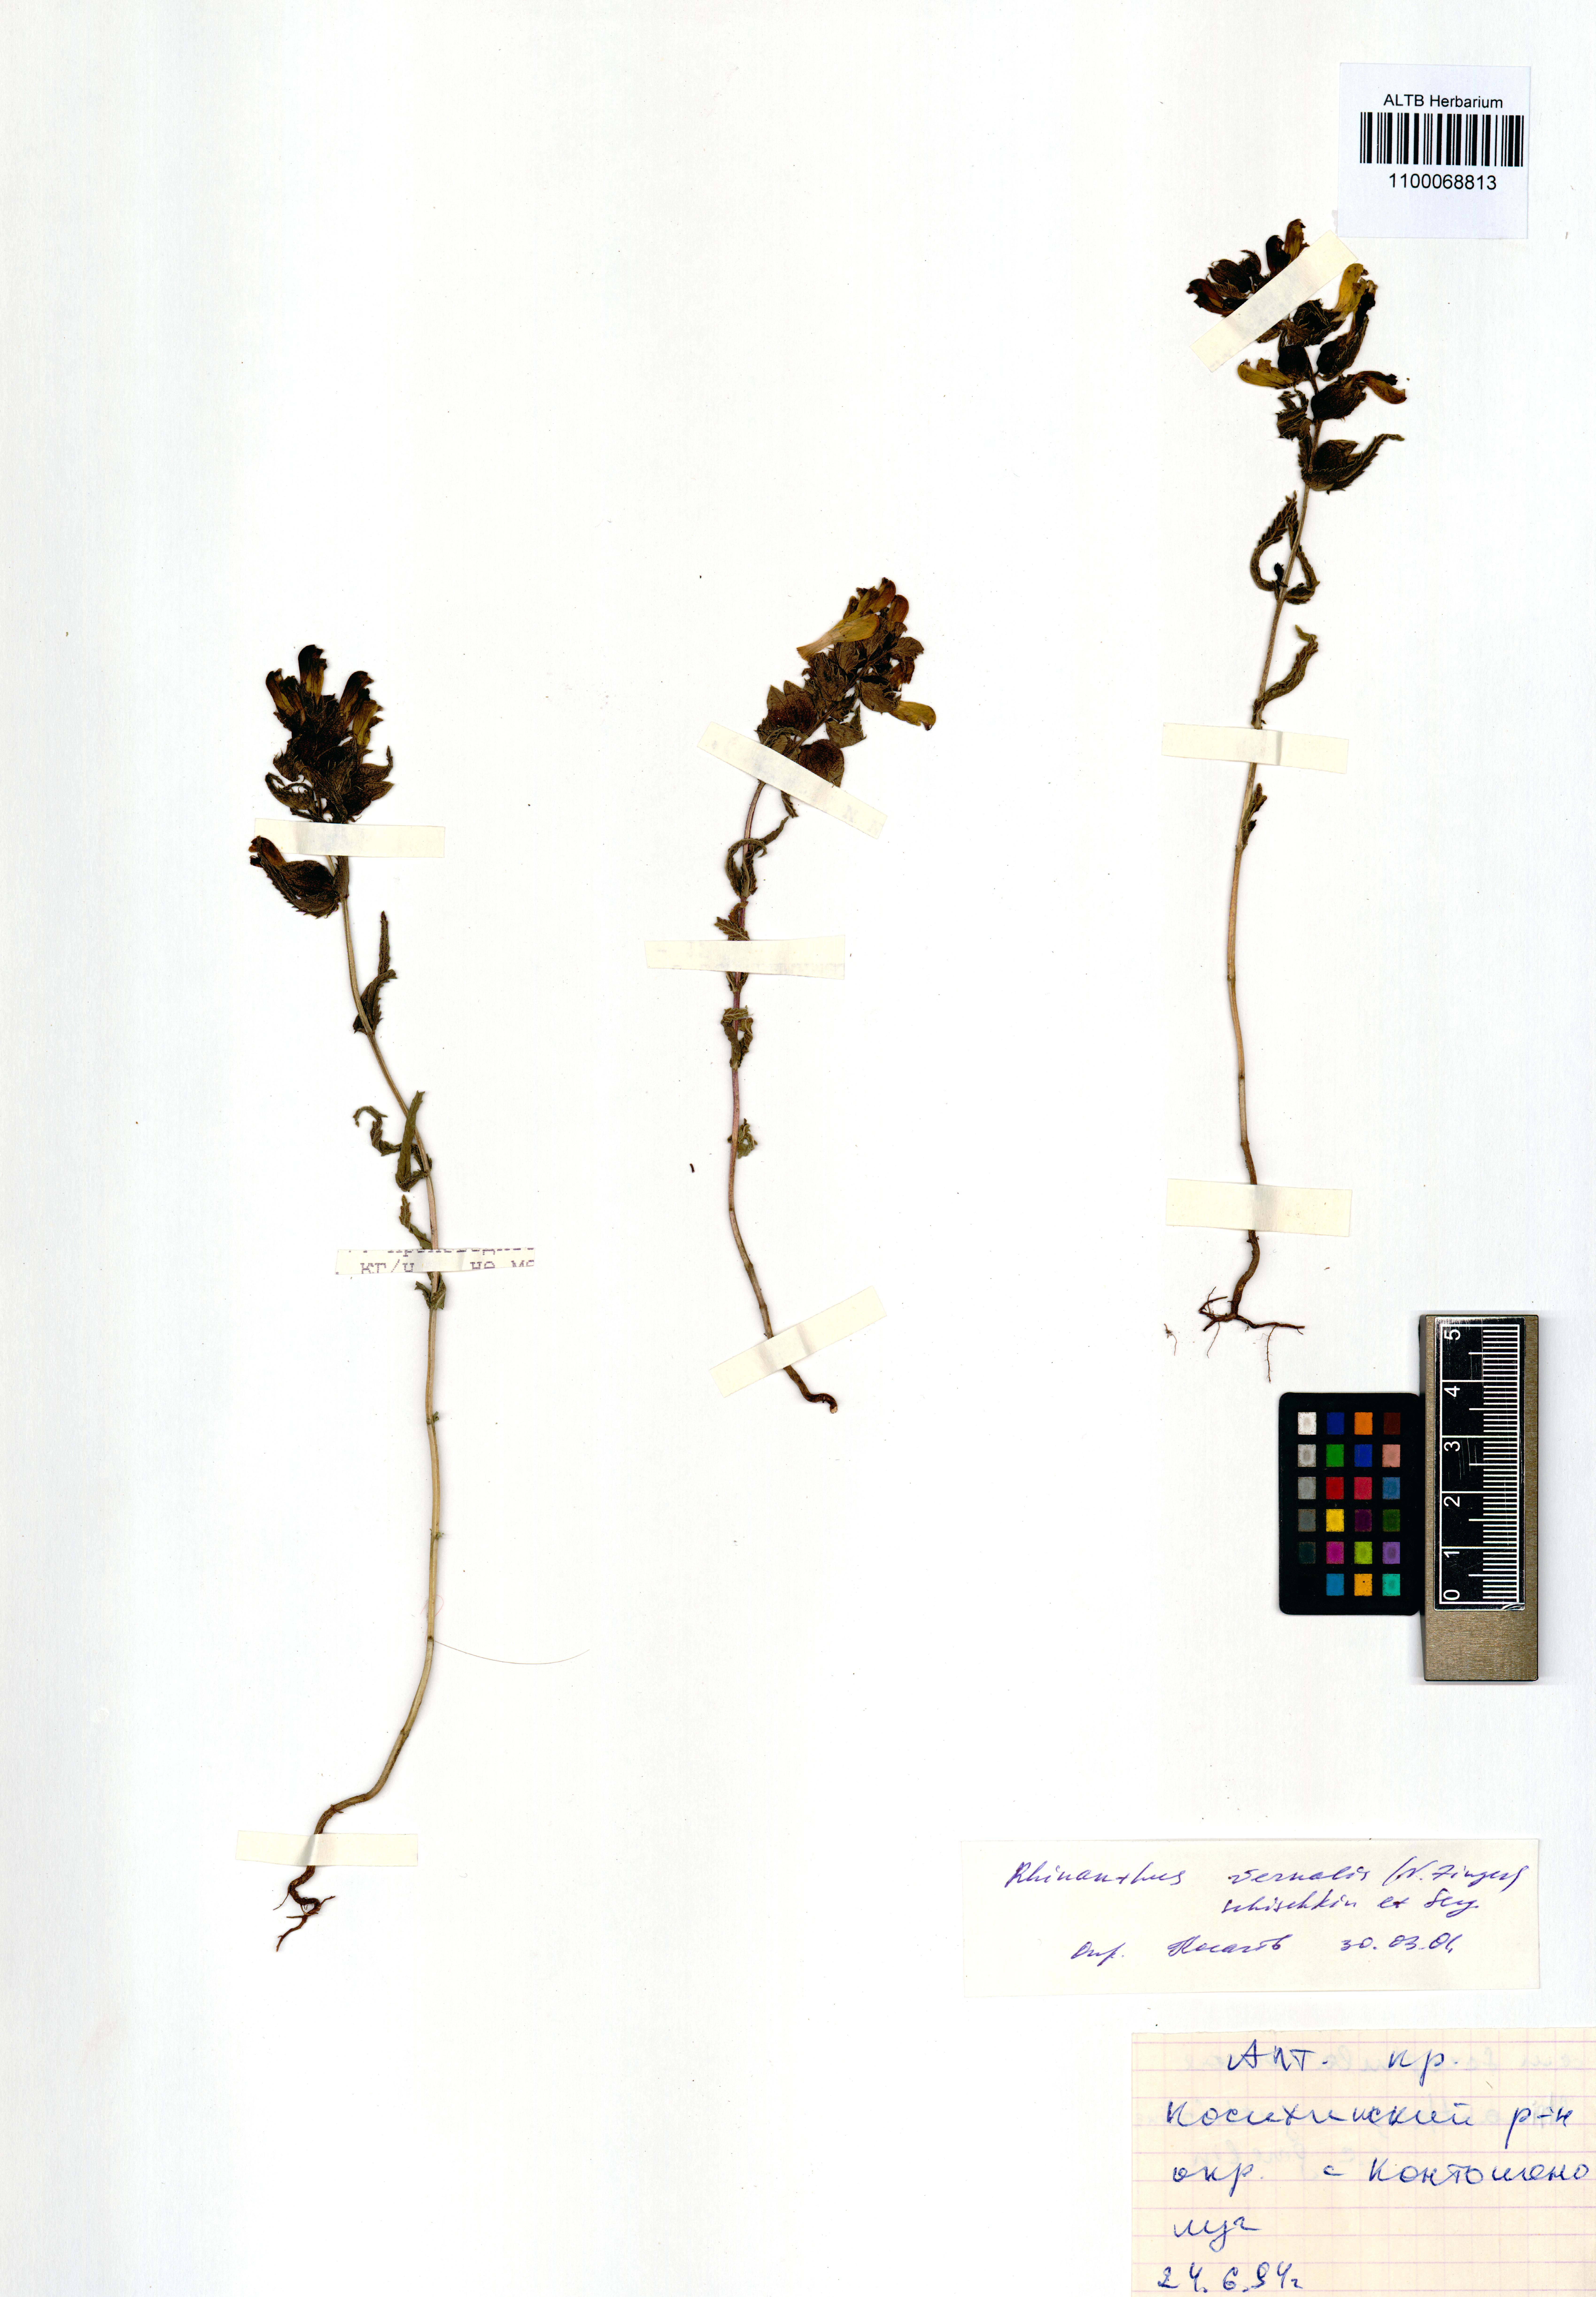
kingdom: Plantae
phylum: Tracheophyta
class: Magnoliopsida
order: Lamiales
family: Orobanchaceae
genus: Rhinanthus
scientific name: Rhinanthus serotinus
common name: Late-flowering yellow rattle
